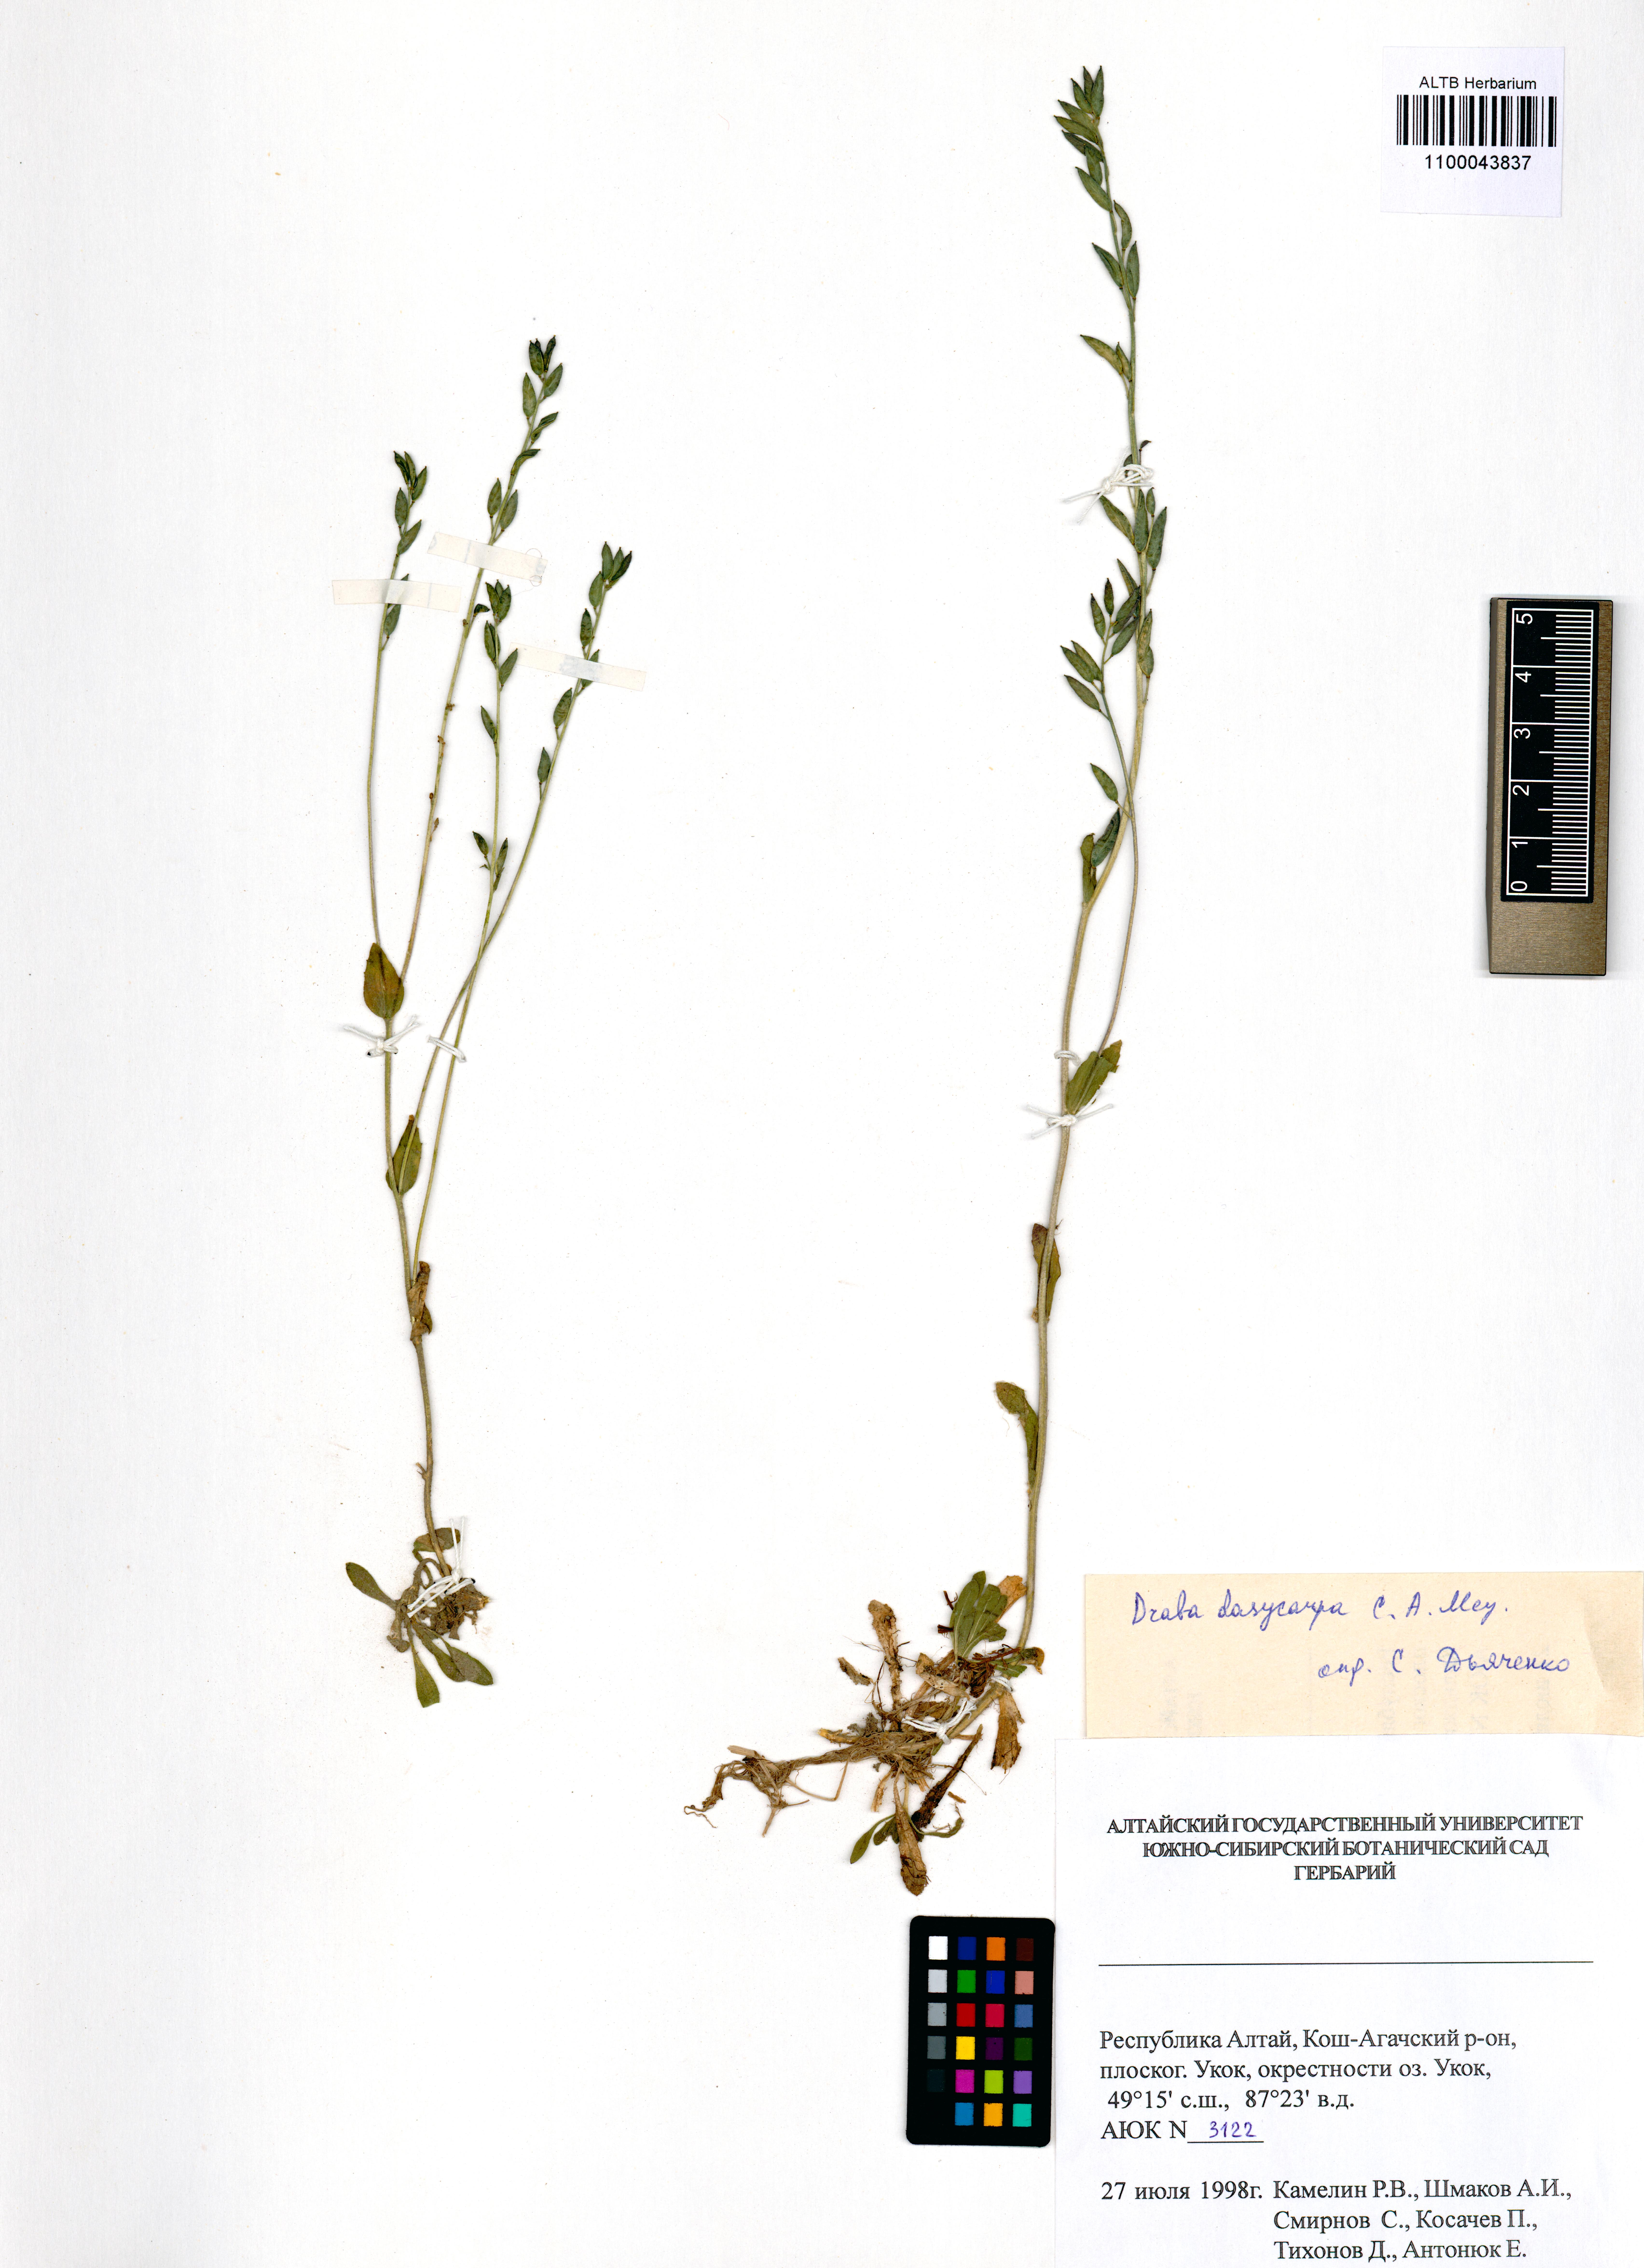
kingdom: Plantae
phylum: Tracheophyta
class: Magnoliopsida
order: Brassicales
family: Brassicaceae
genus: Draba
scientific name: Draba subamplexicaulis
